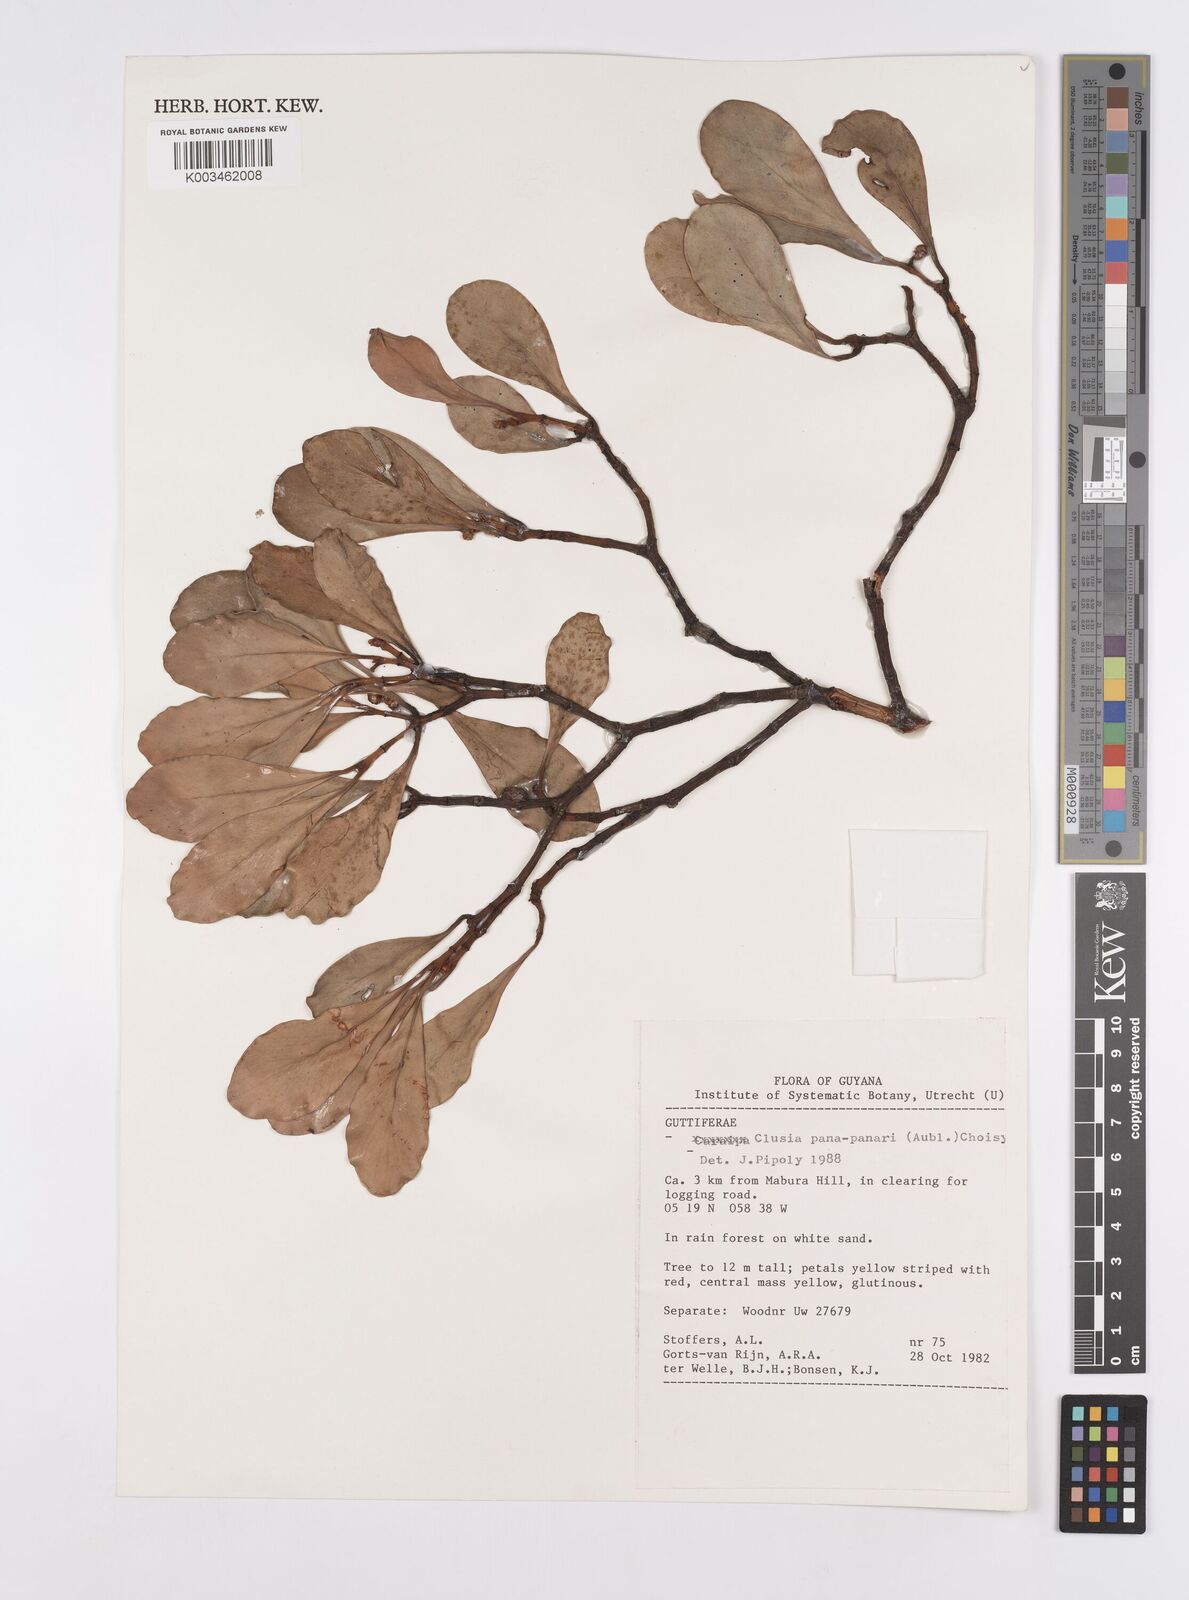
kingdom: Plantae
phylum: Tracheophyta
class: Magnoliopsida
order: Malpighiales
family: Clusiaceae
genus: Clusia
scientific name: Clusia panapanari
